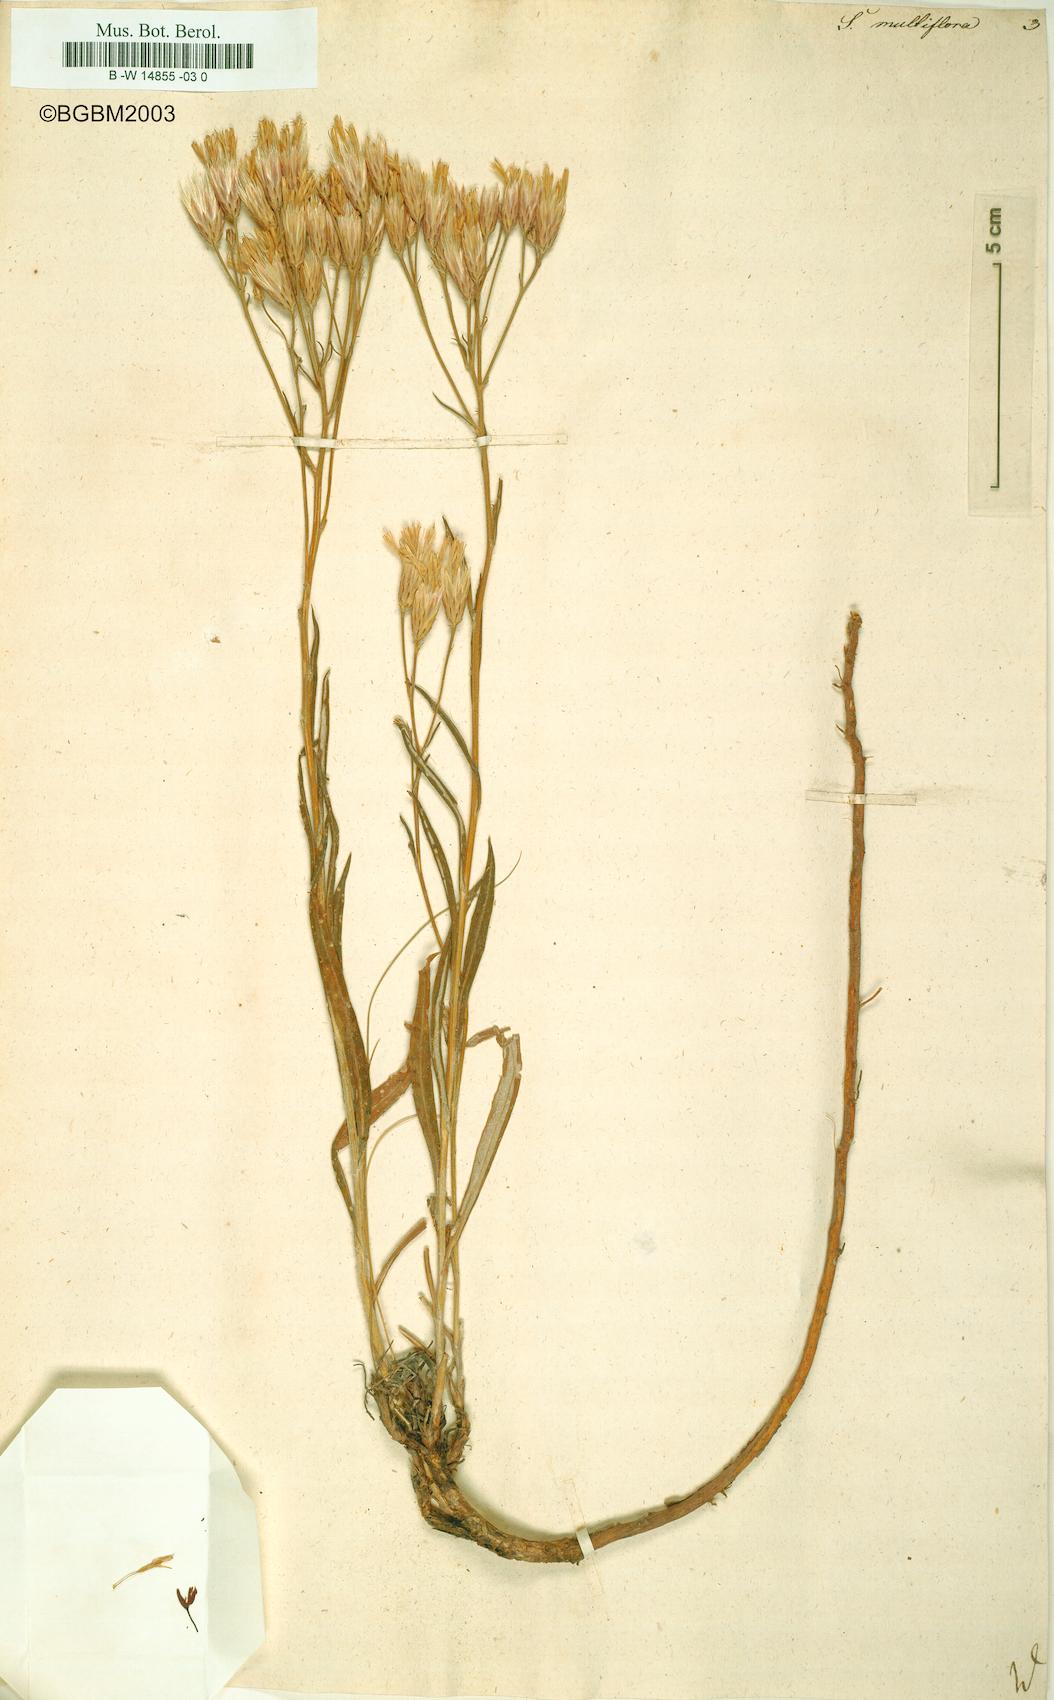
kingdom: Plantae
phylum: Tracheophyta
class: Magnoliopsida
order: Asterales
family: Asteraceae
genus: Serratula
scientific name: Serratula multiflora
